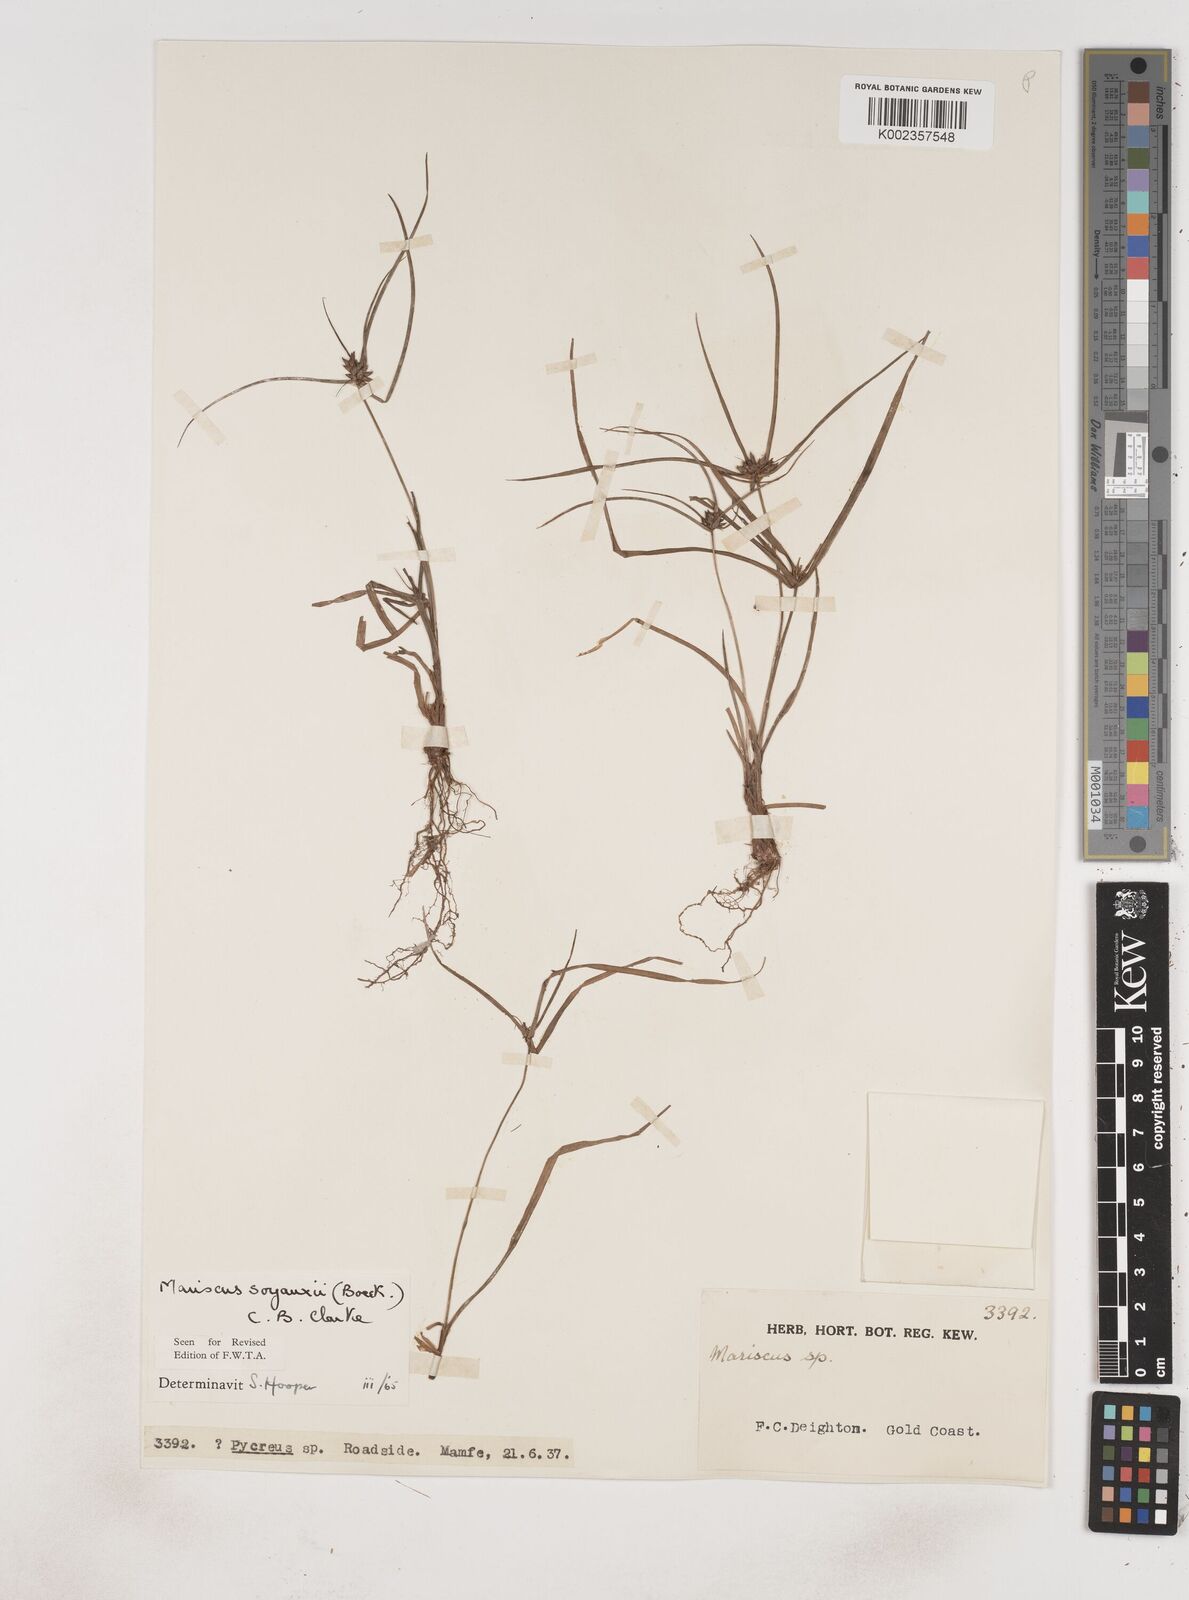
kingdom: Plantae
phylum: Tracheophyta
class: Liliopsida
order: Poales
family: Cyperaceae
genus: Cyperus
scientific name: Cyperus soyauxii
